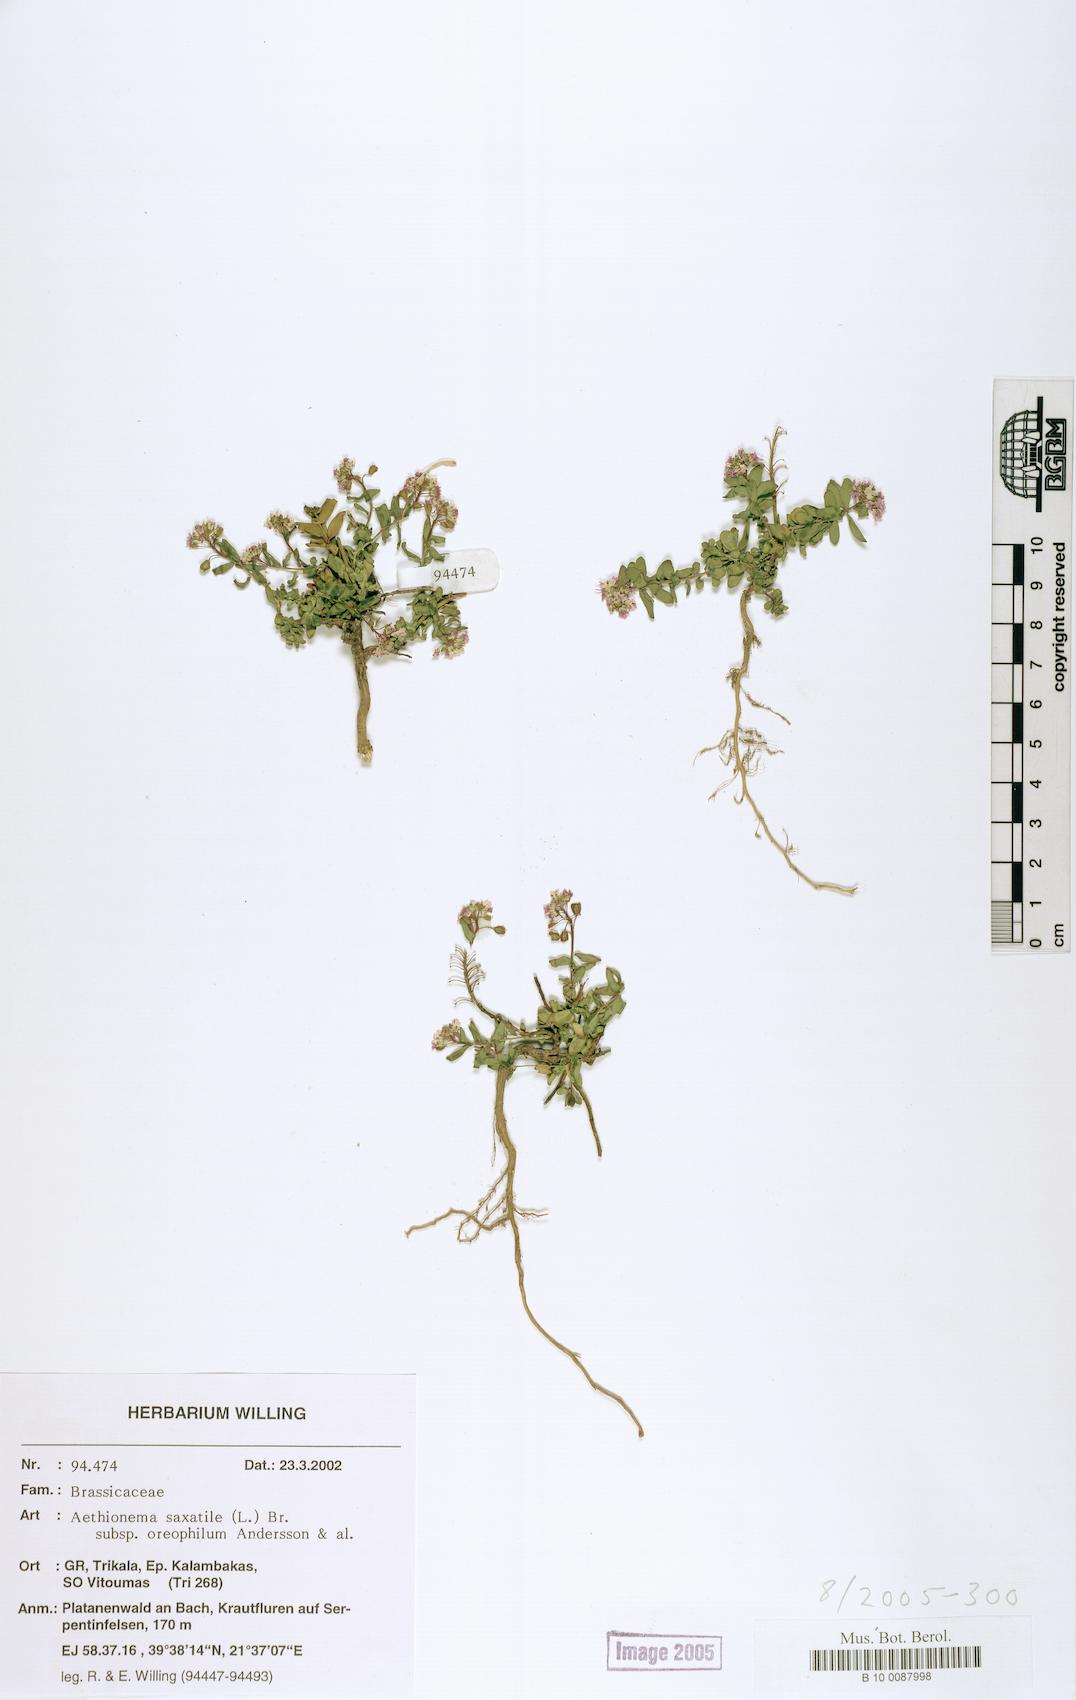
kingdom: Plantae
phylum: Tracheophyta
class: Magnoliopsida
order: Brassicales
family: Brassicaceae
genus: Aethionema
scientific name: Aethionema saxatile
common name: Burnt candytuft
